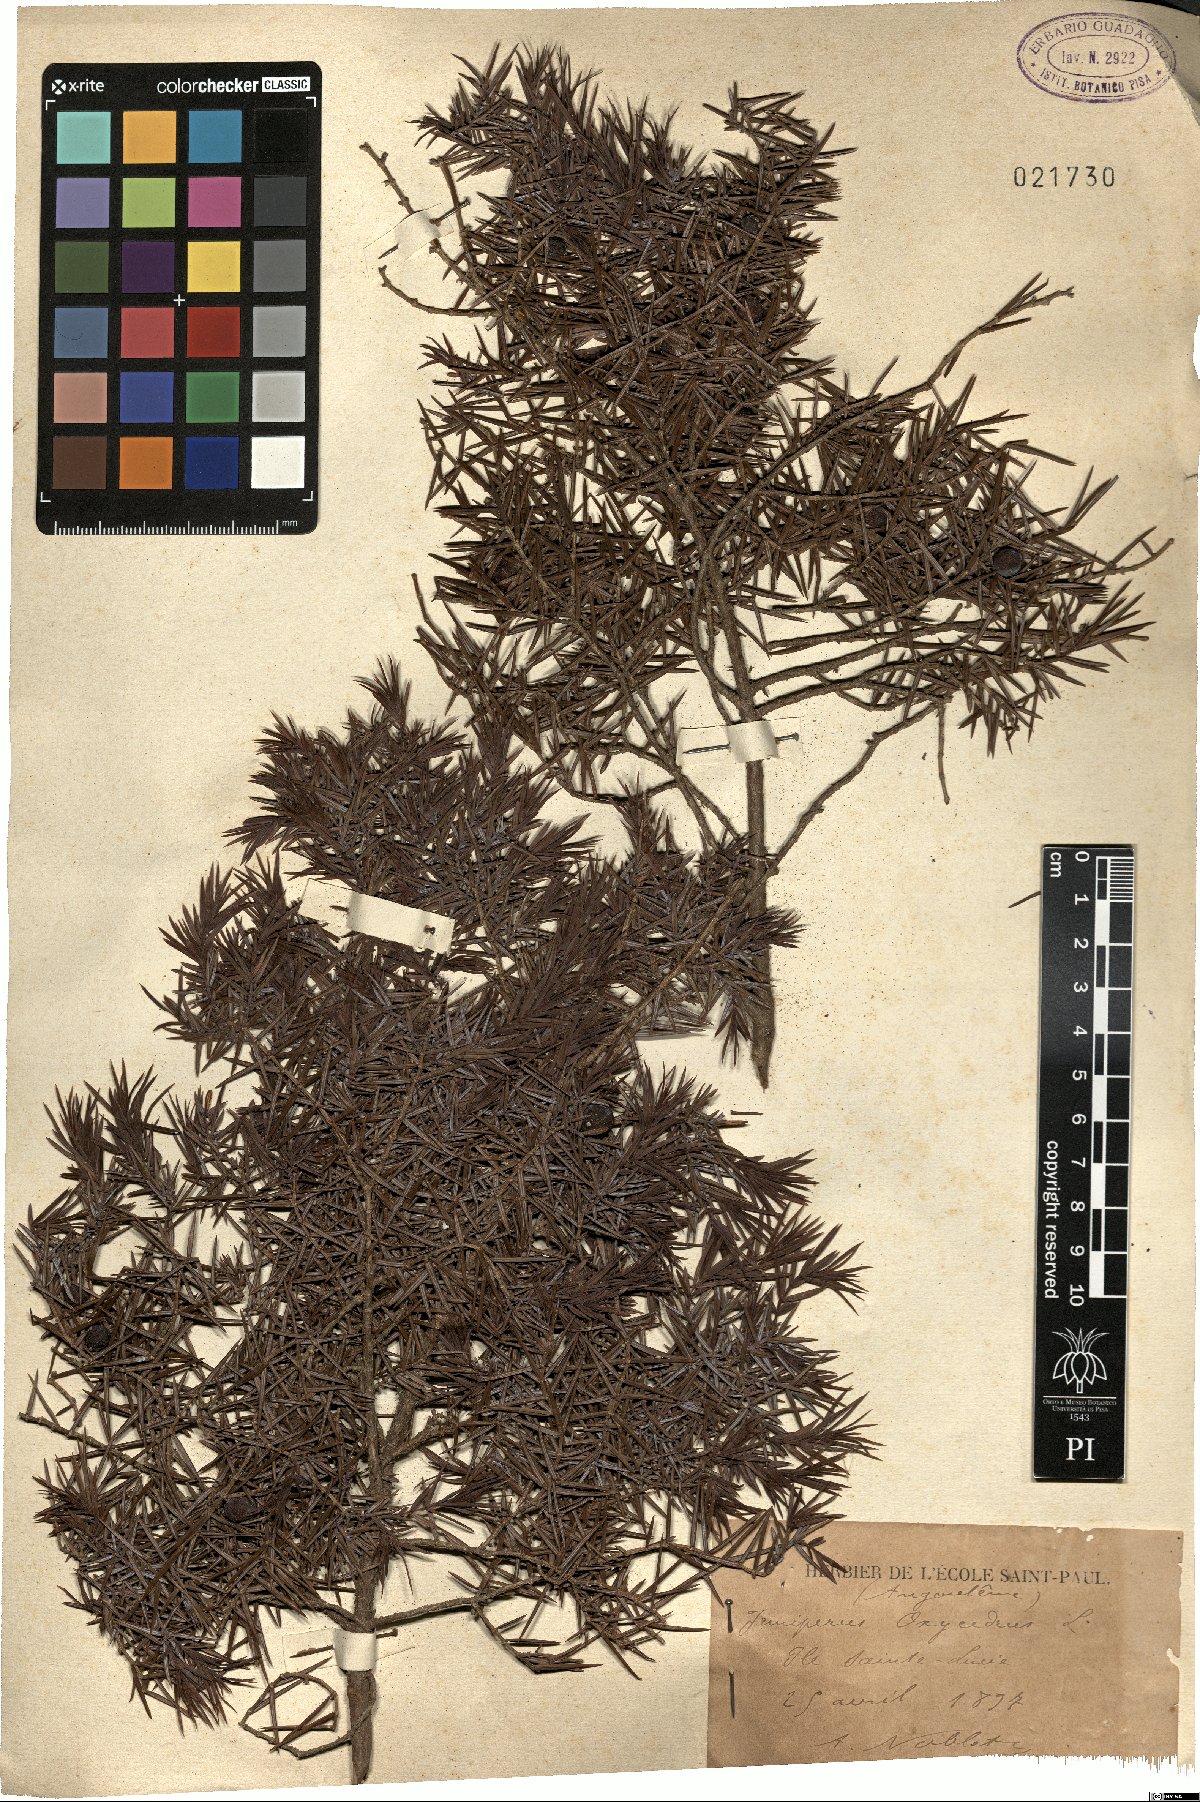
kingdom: Plantae
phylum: Tracheophyta
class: Pinopsida
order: Pinales
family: Cupressaceae
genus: Juniperus
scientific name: Juniperus oxycedrus
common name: Prickly juniper
